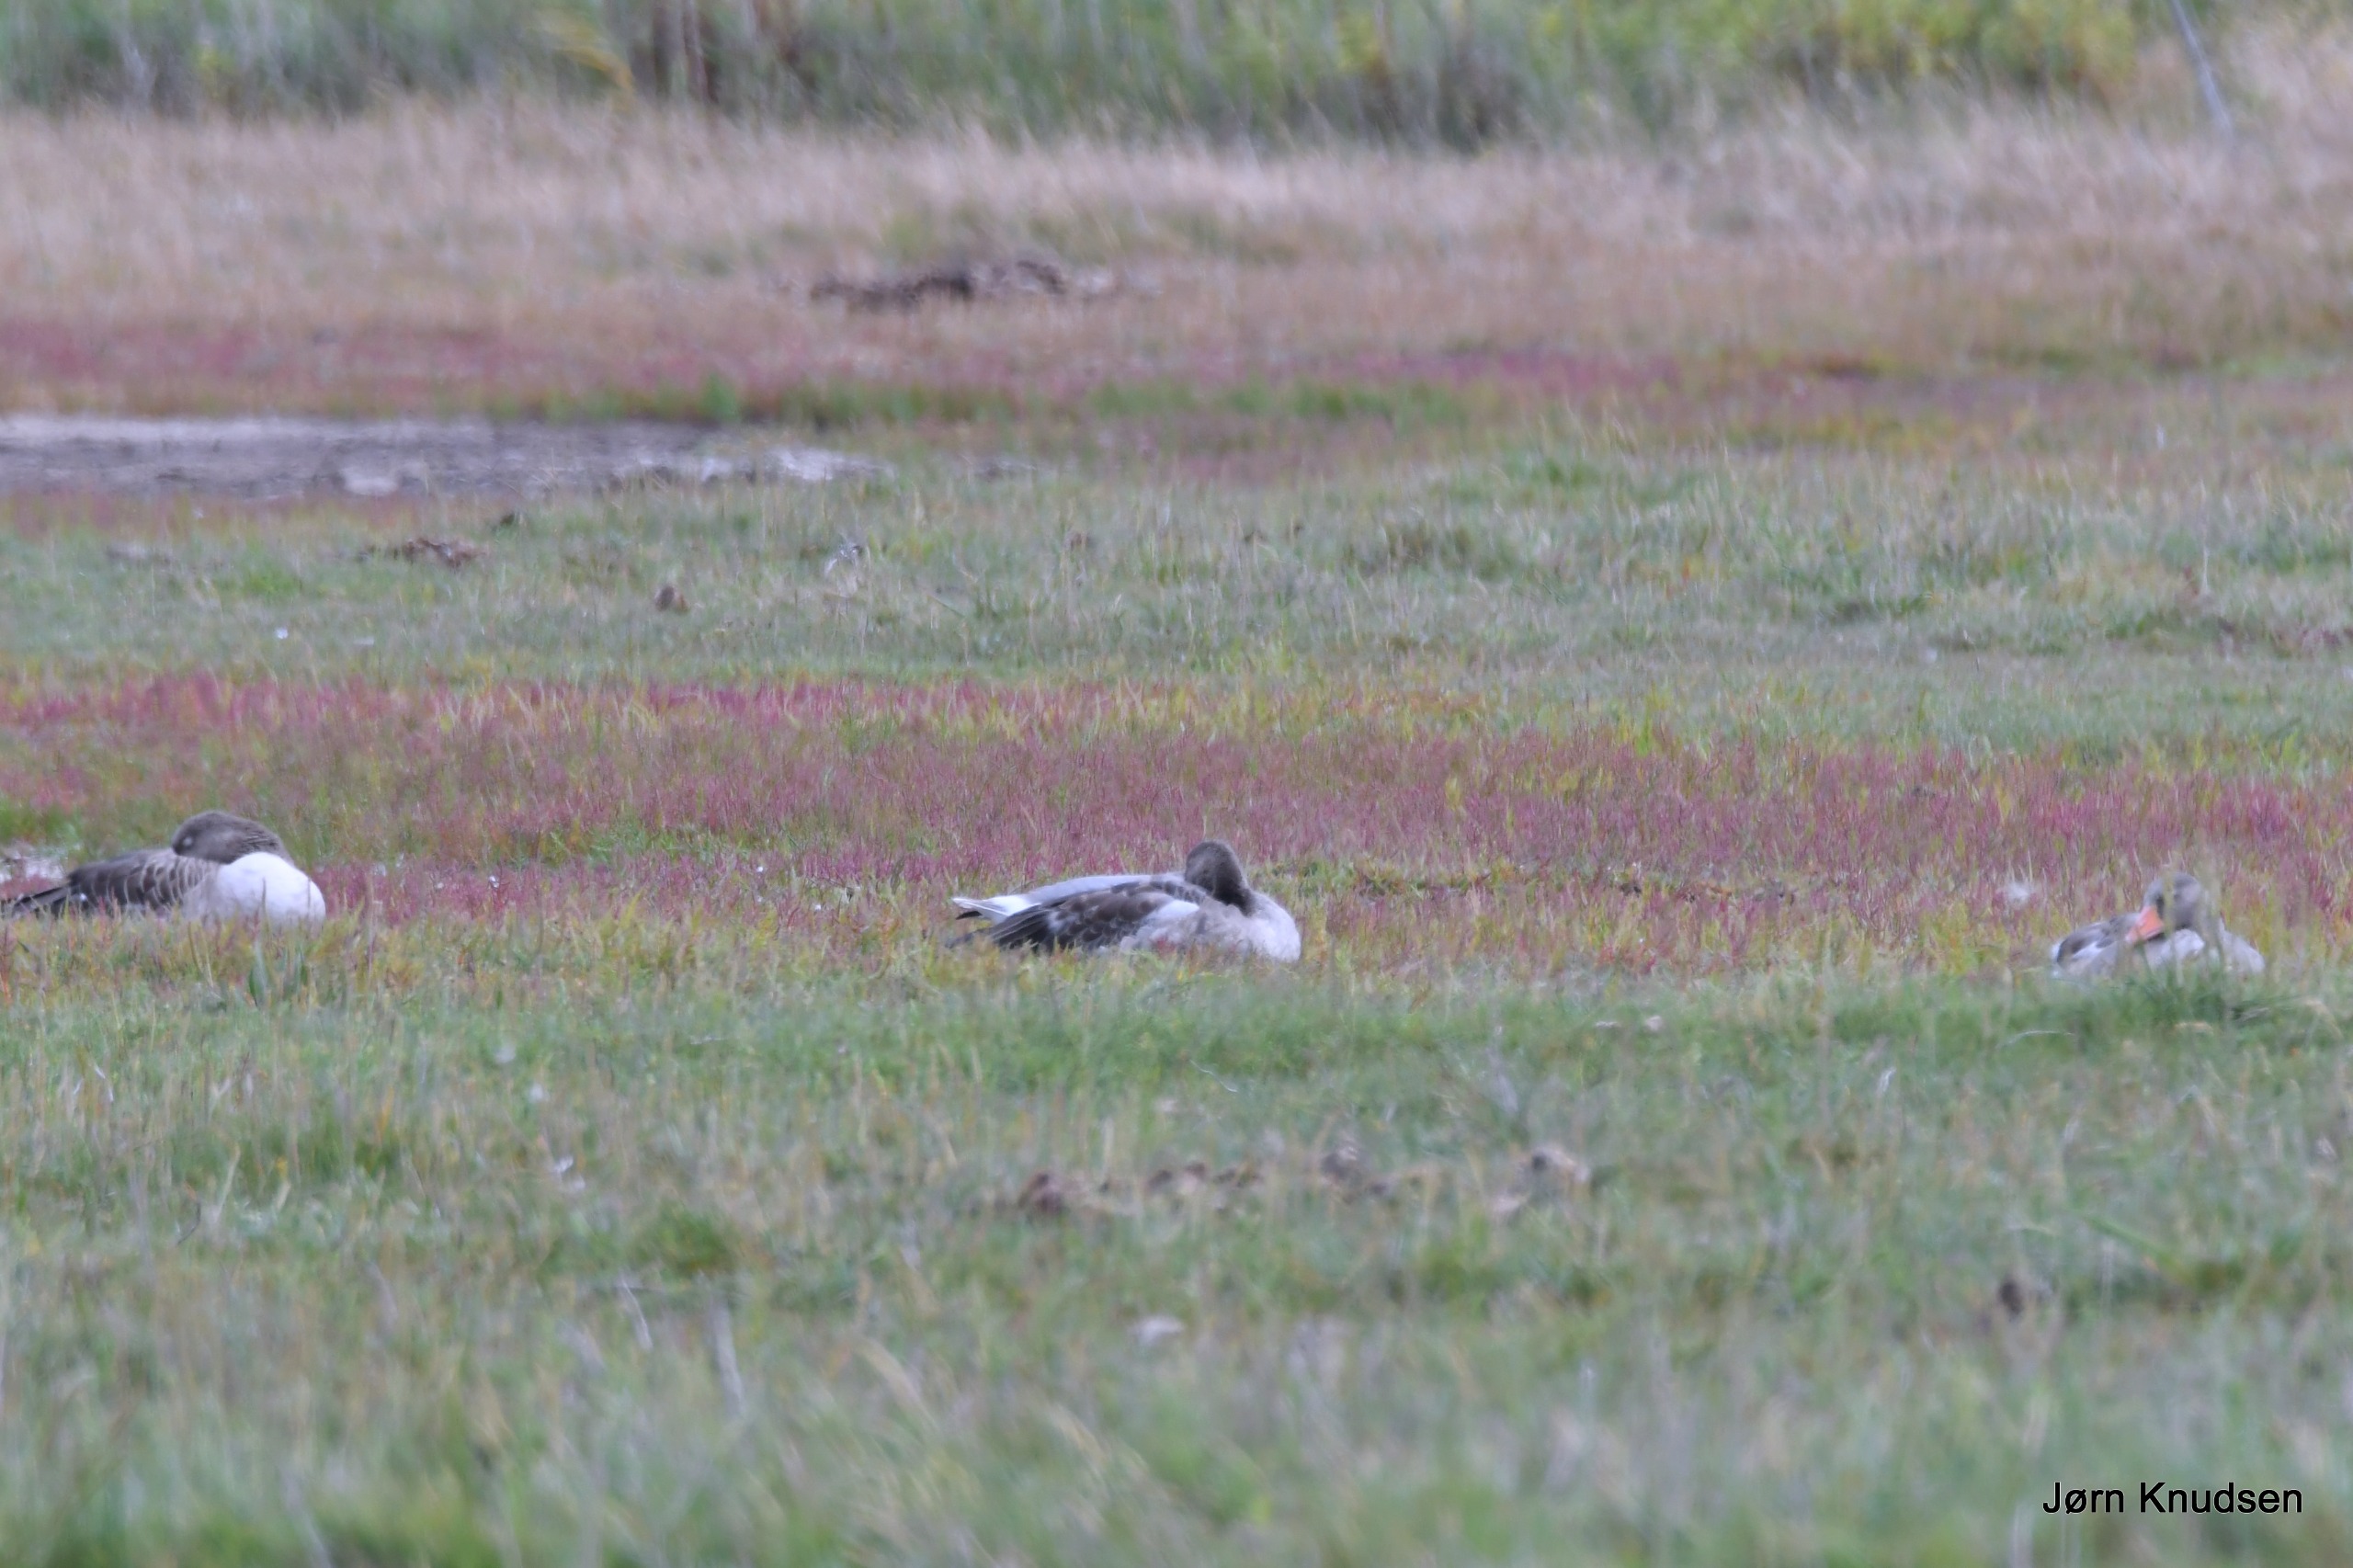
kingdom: Animalia
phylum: Chordata
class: Aves
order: Anseriformes
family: Anatidae
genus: Anser
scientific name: Anser anser
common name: Grågås
